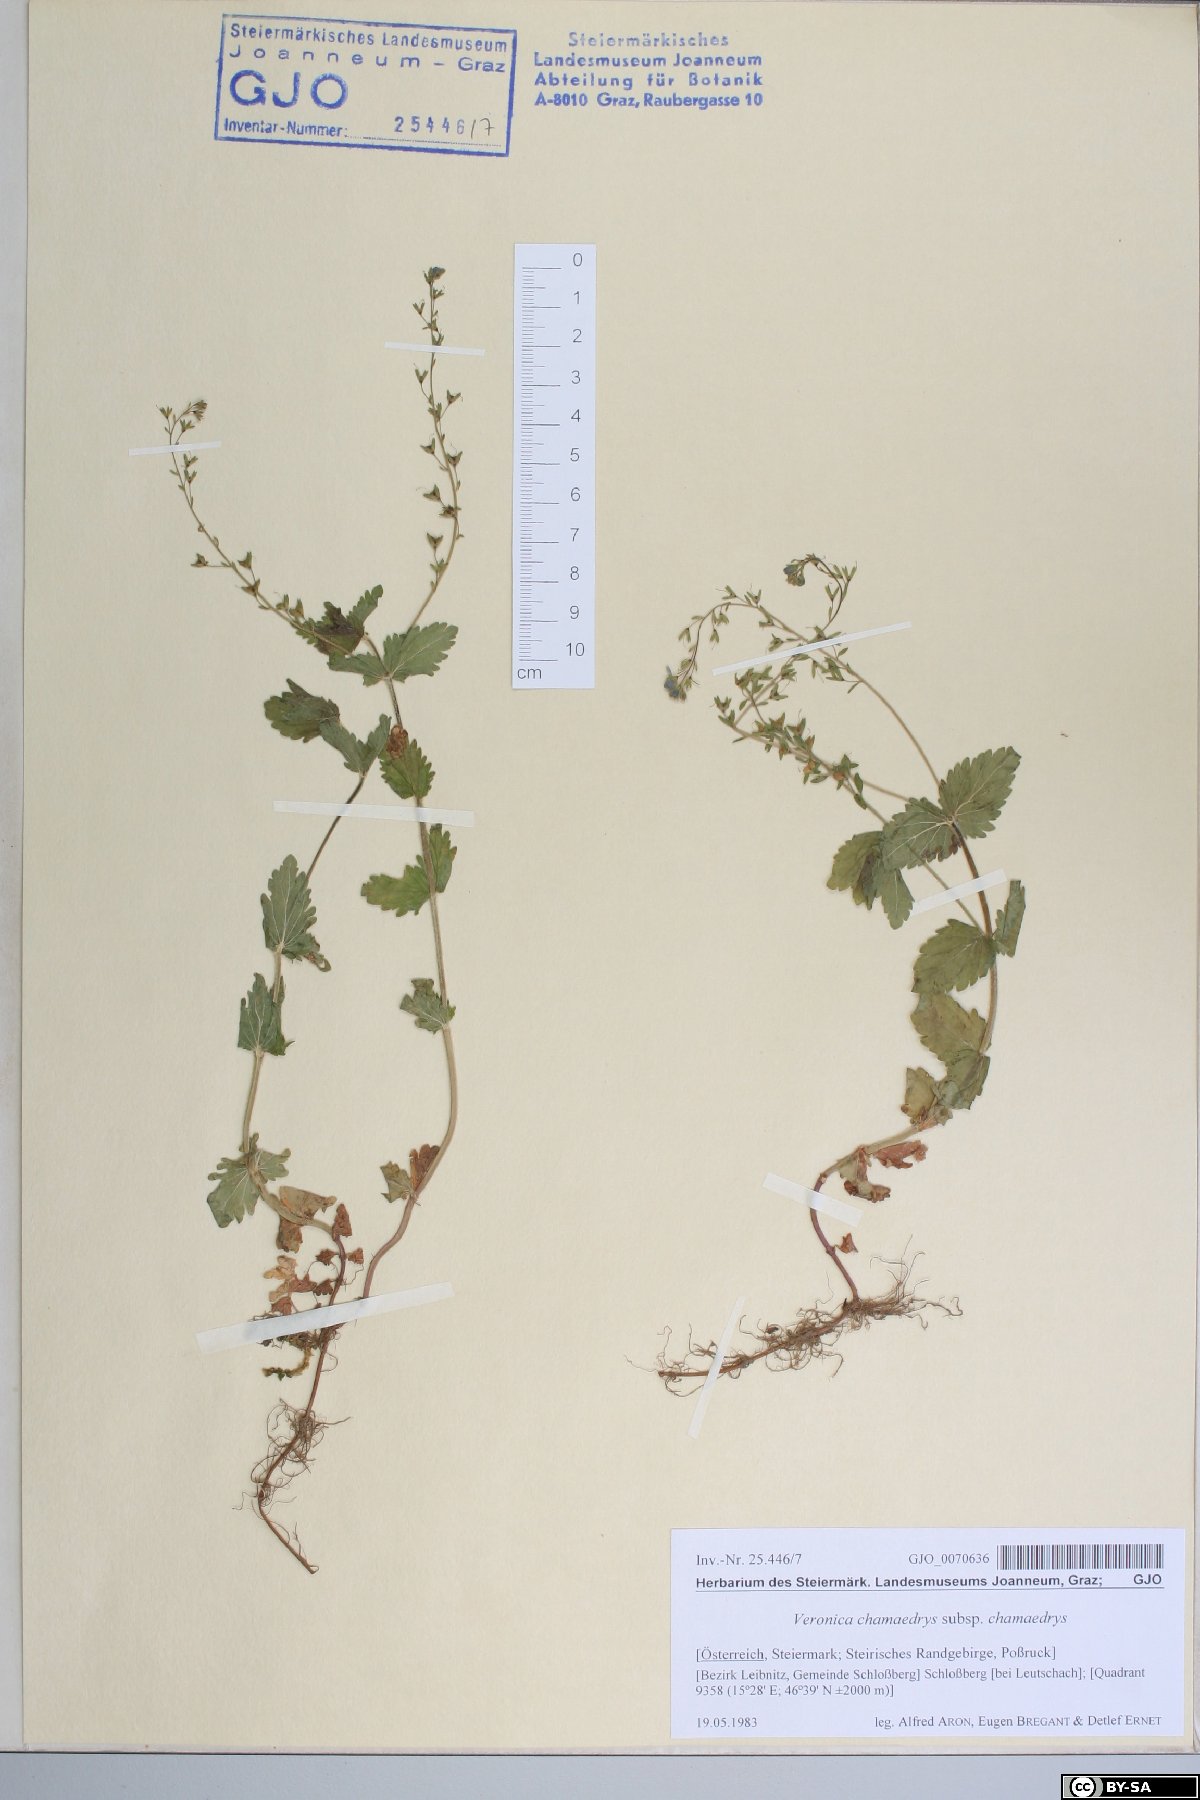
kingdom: Plantae
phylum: Tracheophyta
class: Magnoliopsida
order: Lamiales
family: Plantaginaceae
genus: Veronica
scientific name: Veronica chamaedrys
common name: Germander speedwell
